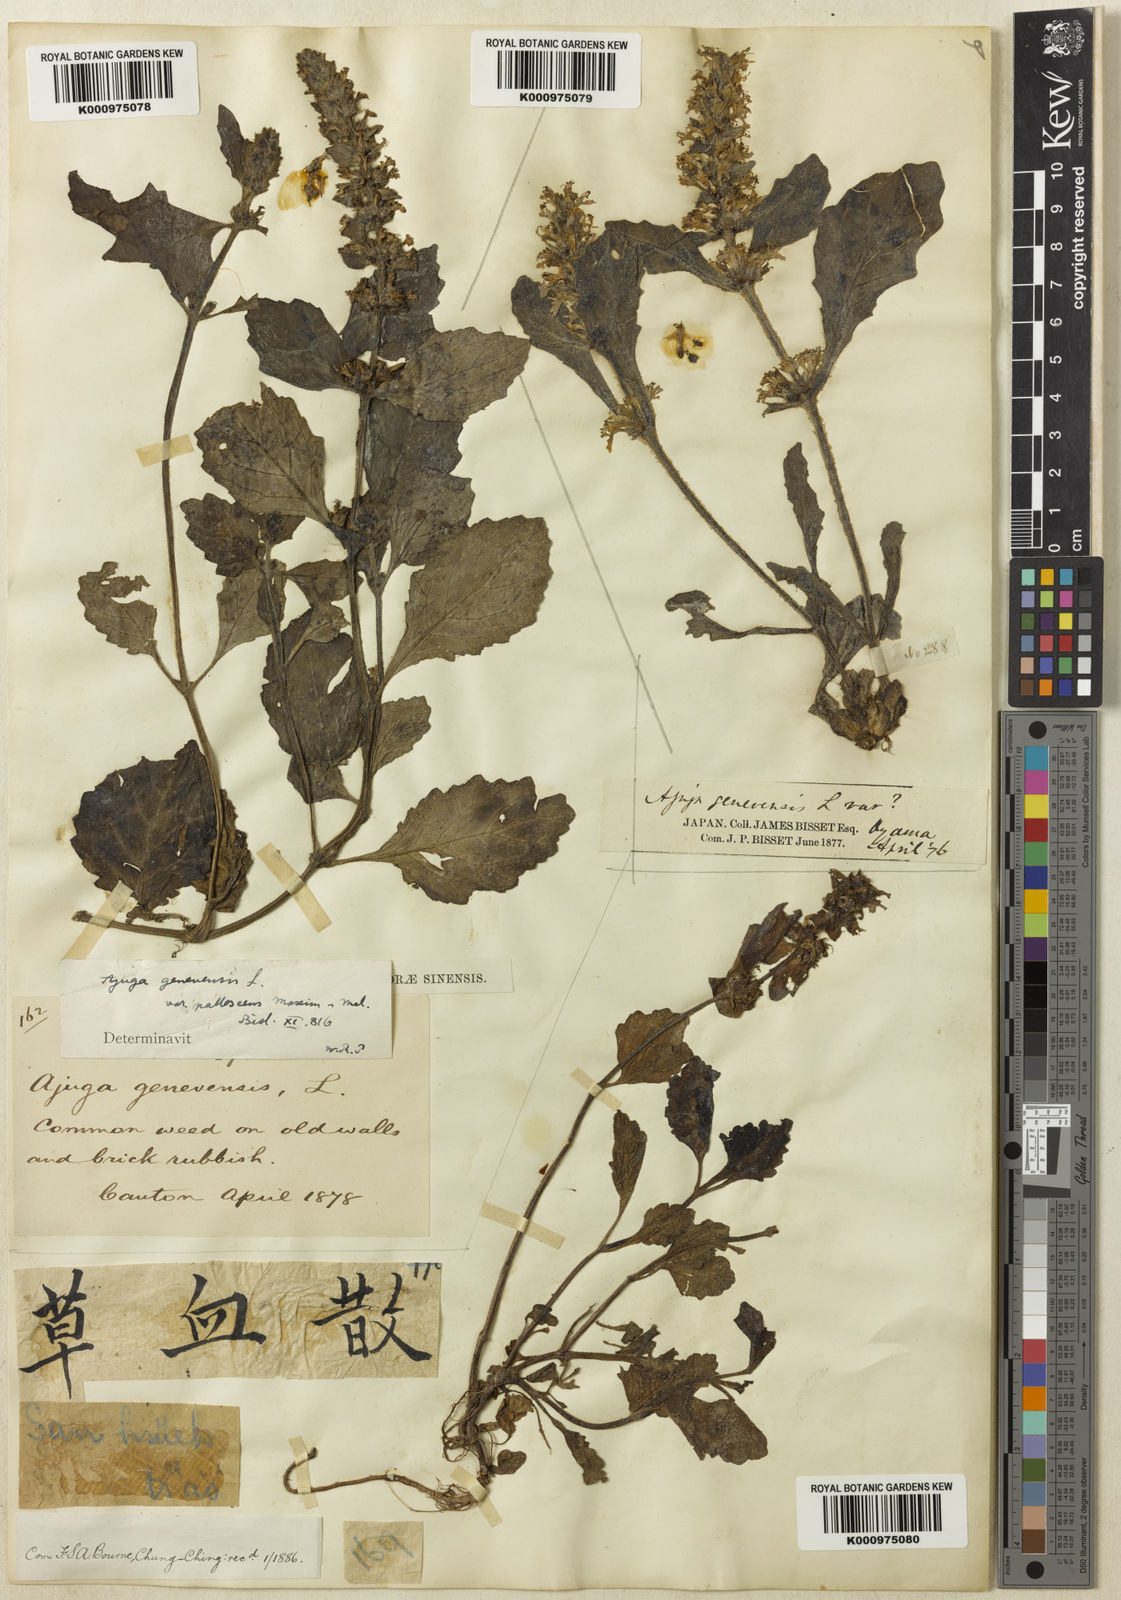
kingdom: Plantae
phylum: Tracheophyta
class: Magnoliopsida
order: Lamiales
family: Lamiaceae
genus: Ajuga
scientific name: Ajuga shikotanensis
